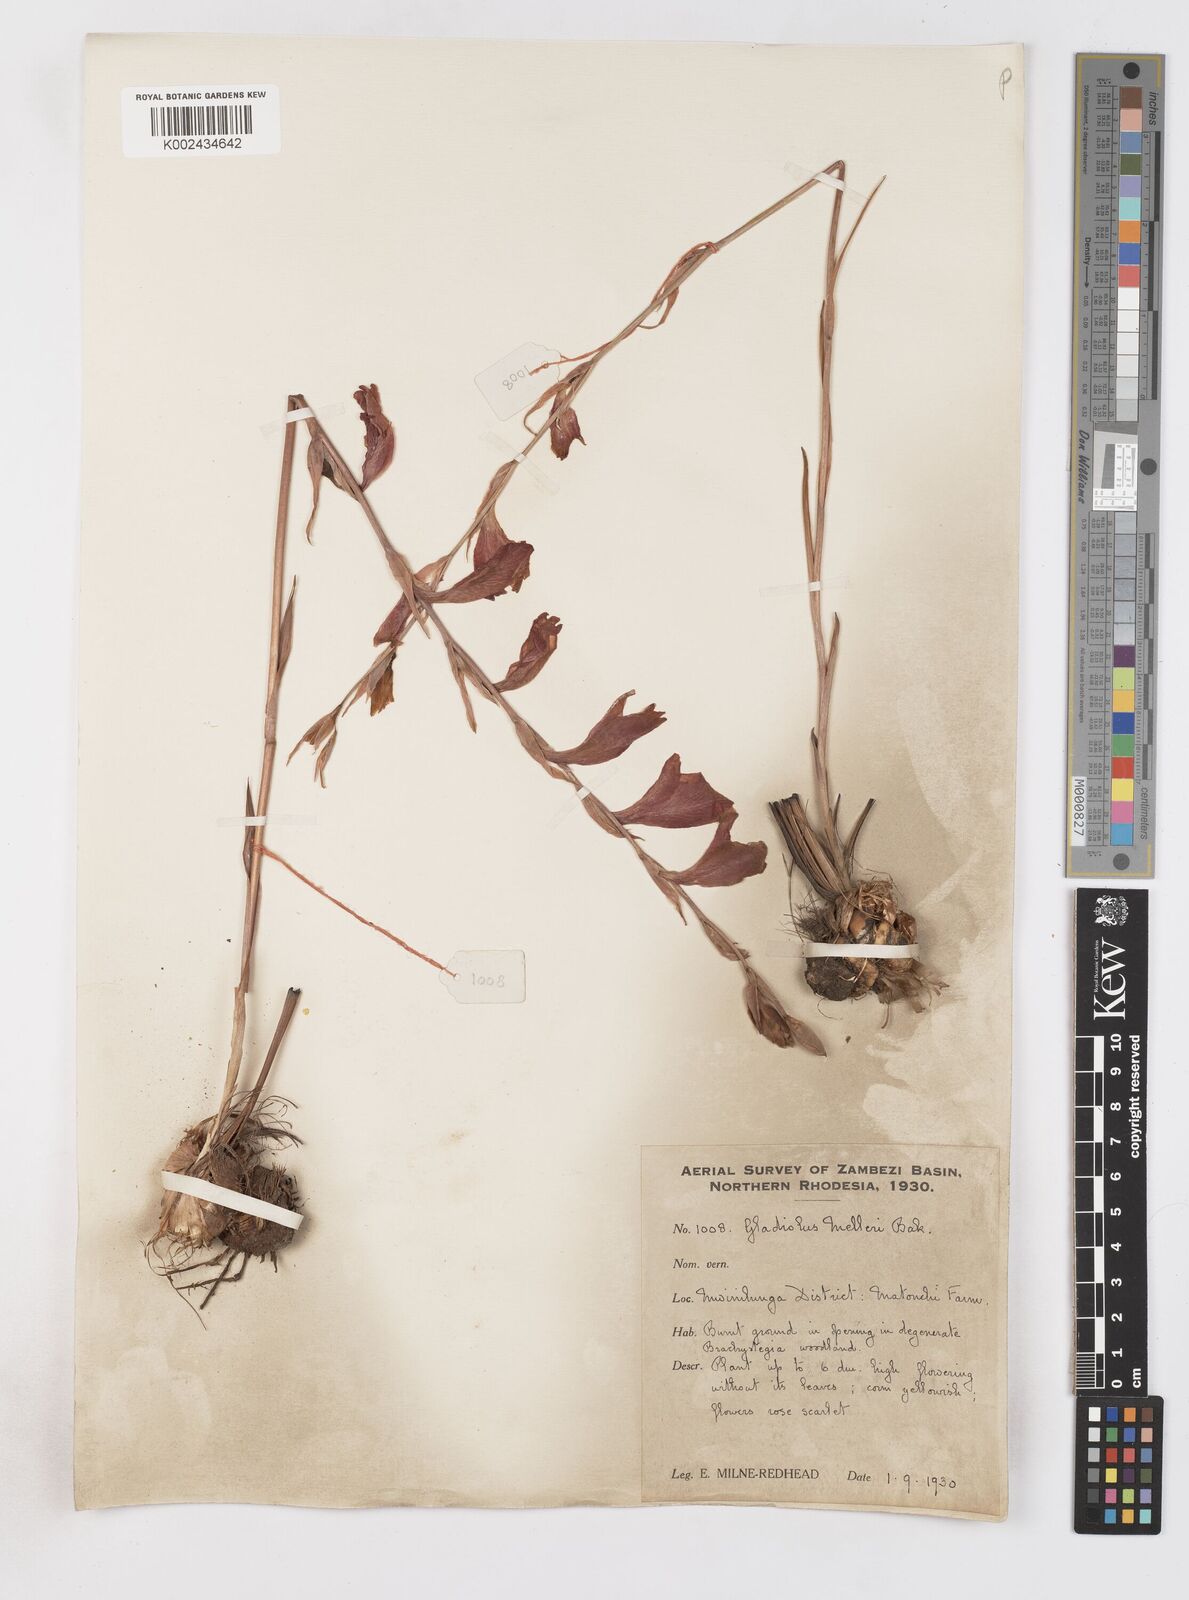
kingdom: Plantae
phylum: Tracheophyta
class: Liliopsida
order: Asparagales
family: Iridaceae
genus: Gladiolus
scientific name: Gladiolus melleri
